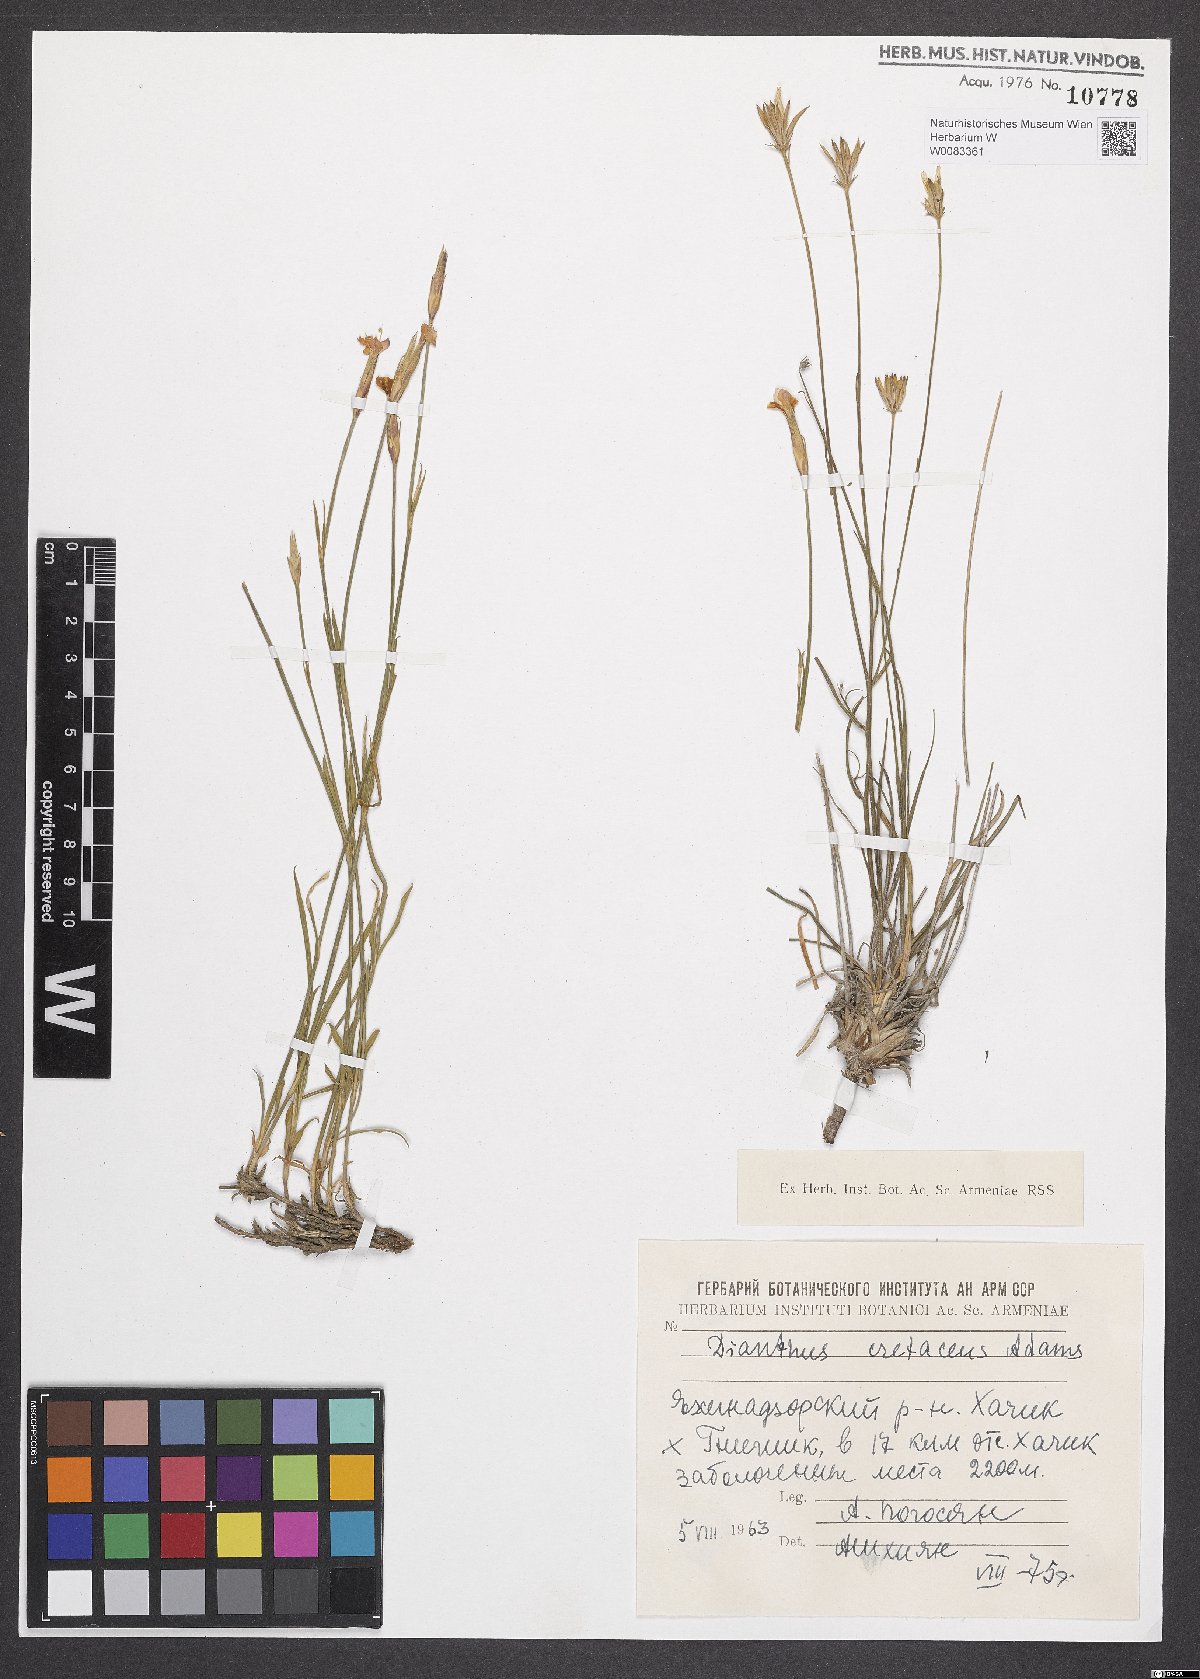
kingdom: Plantae
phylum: Tracheophyta
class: Magnoliopsida
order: Caryophyllales
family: Caryophyllaceae
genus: Dianthus
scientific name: Dianthus cretaceus
